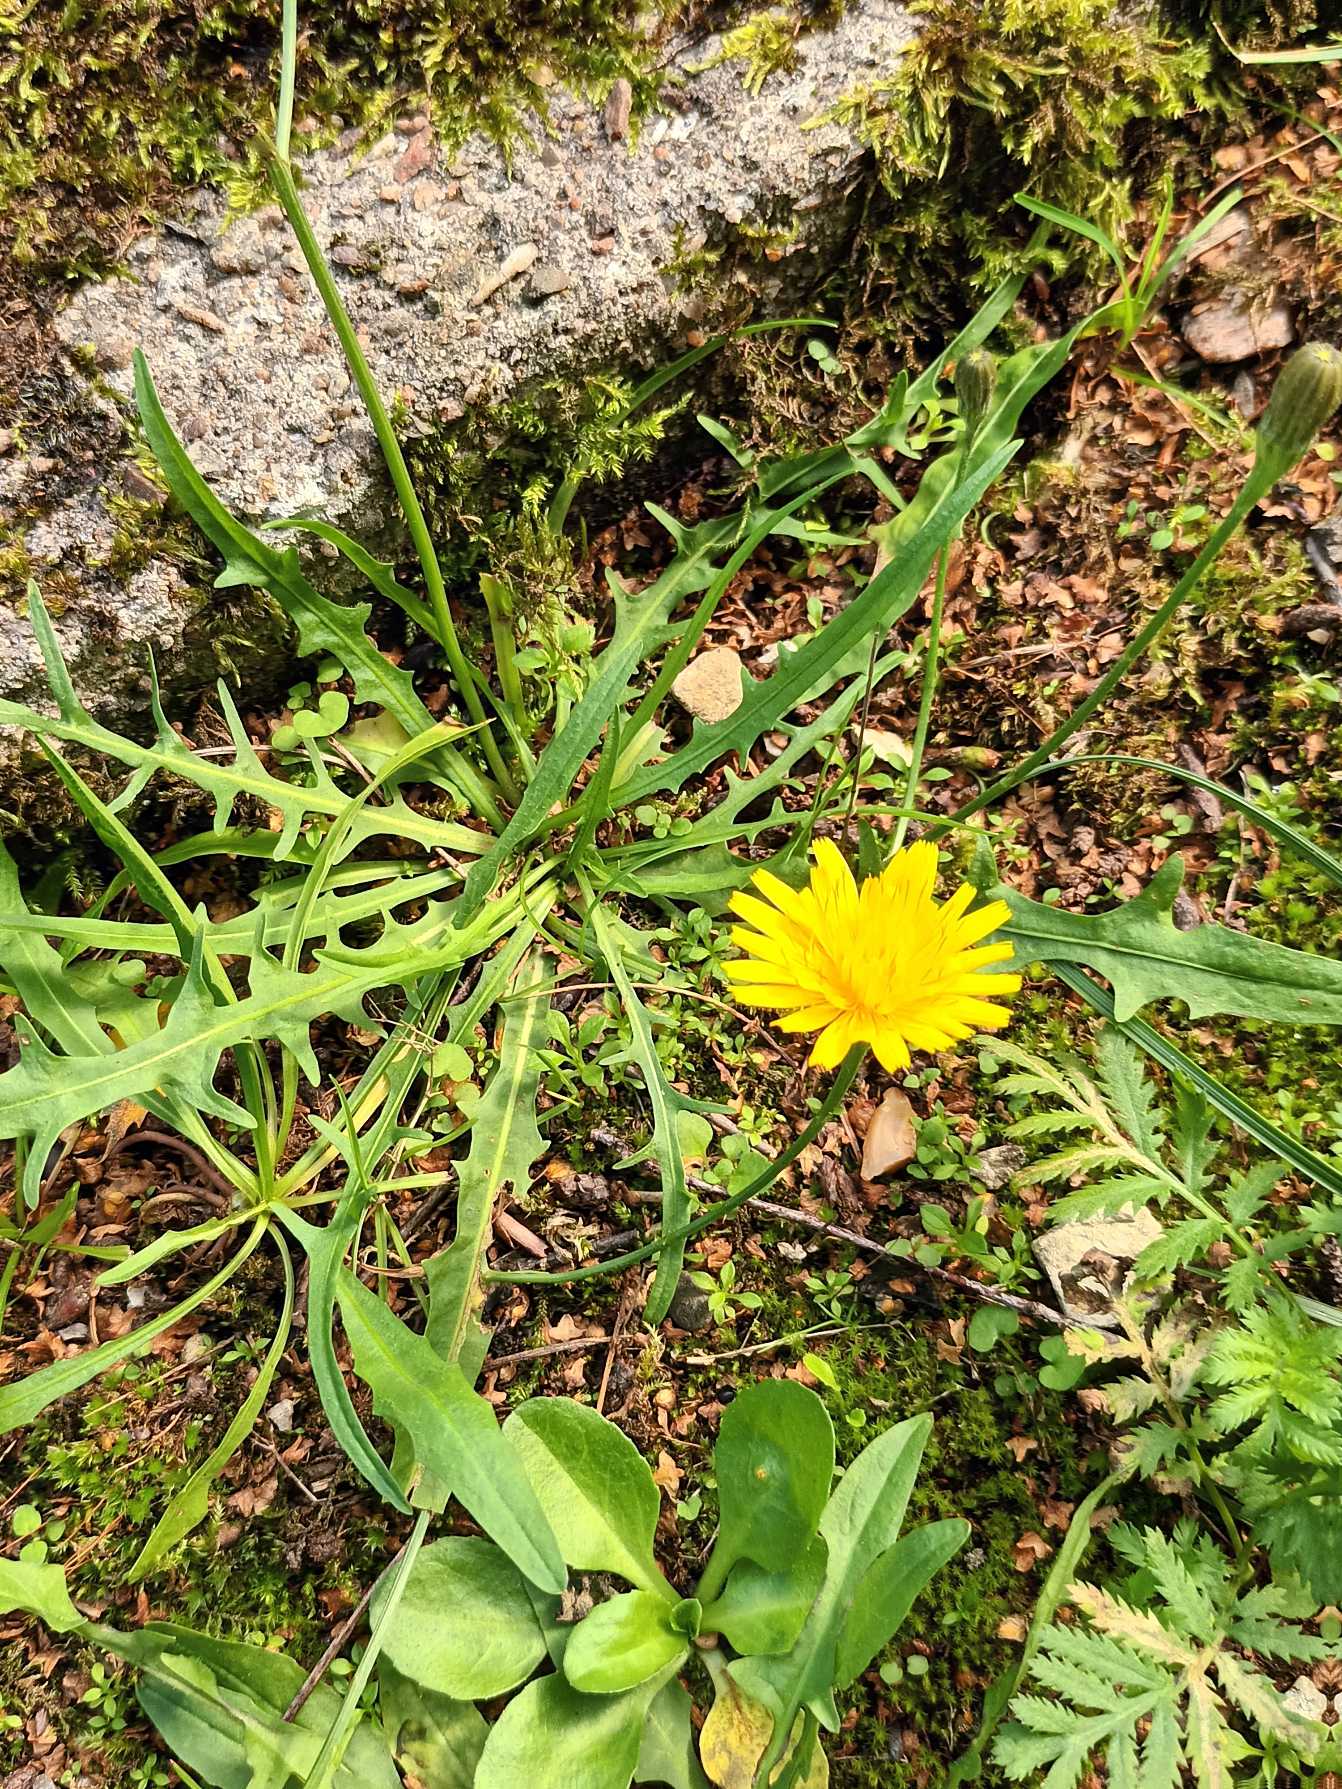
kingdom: Plantae
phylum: Tracheophyta
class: Magnoliopsida
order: Asterales
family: Asteraceae
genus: Scorzoneroides
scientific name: Scorzoneroides autumnalis
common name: Høst-borst
